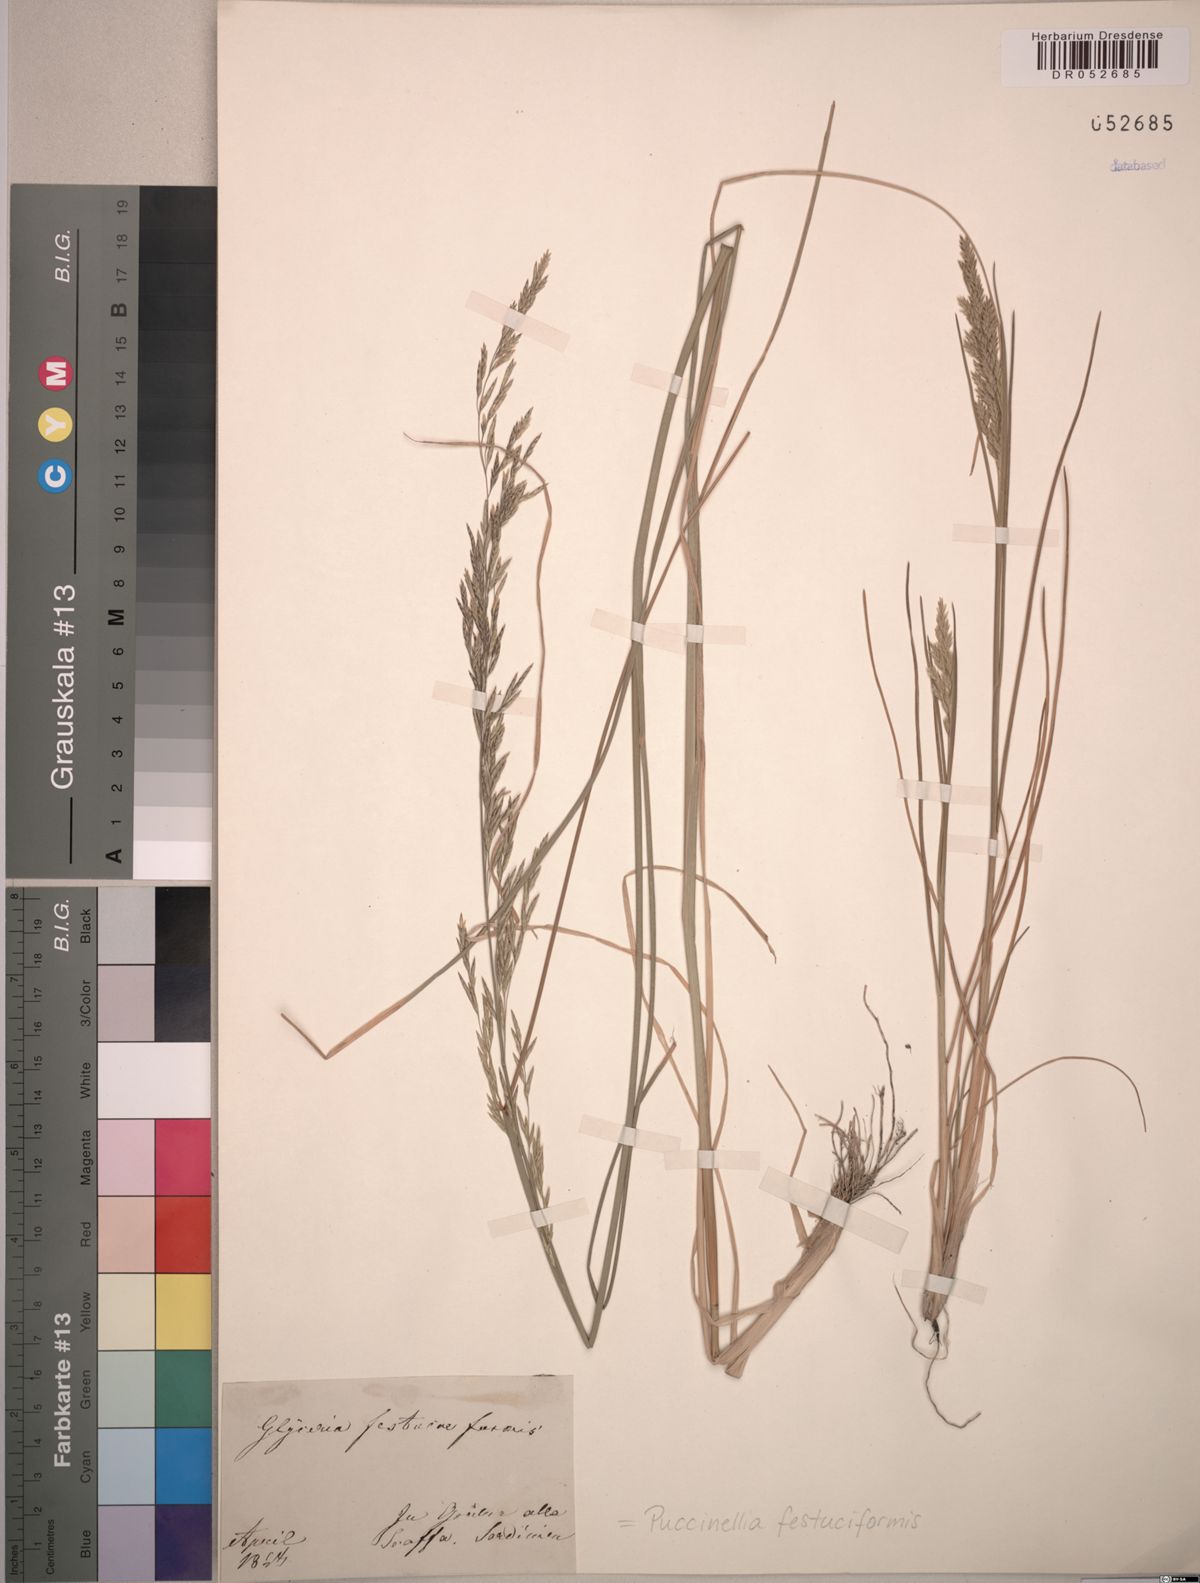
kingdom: Plantae
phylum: Tracheophyta
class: Liliopsida
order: Poales
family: Poaceae
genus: Puccinellia
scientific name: Puccinellia festuciformis
